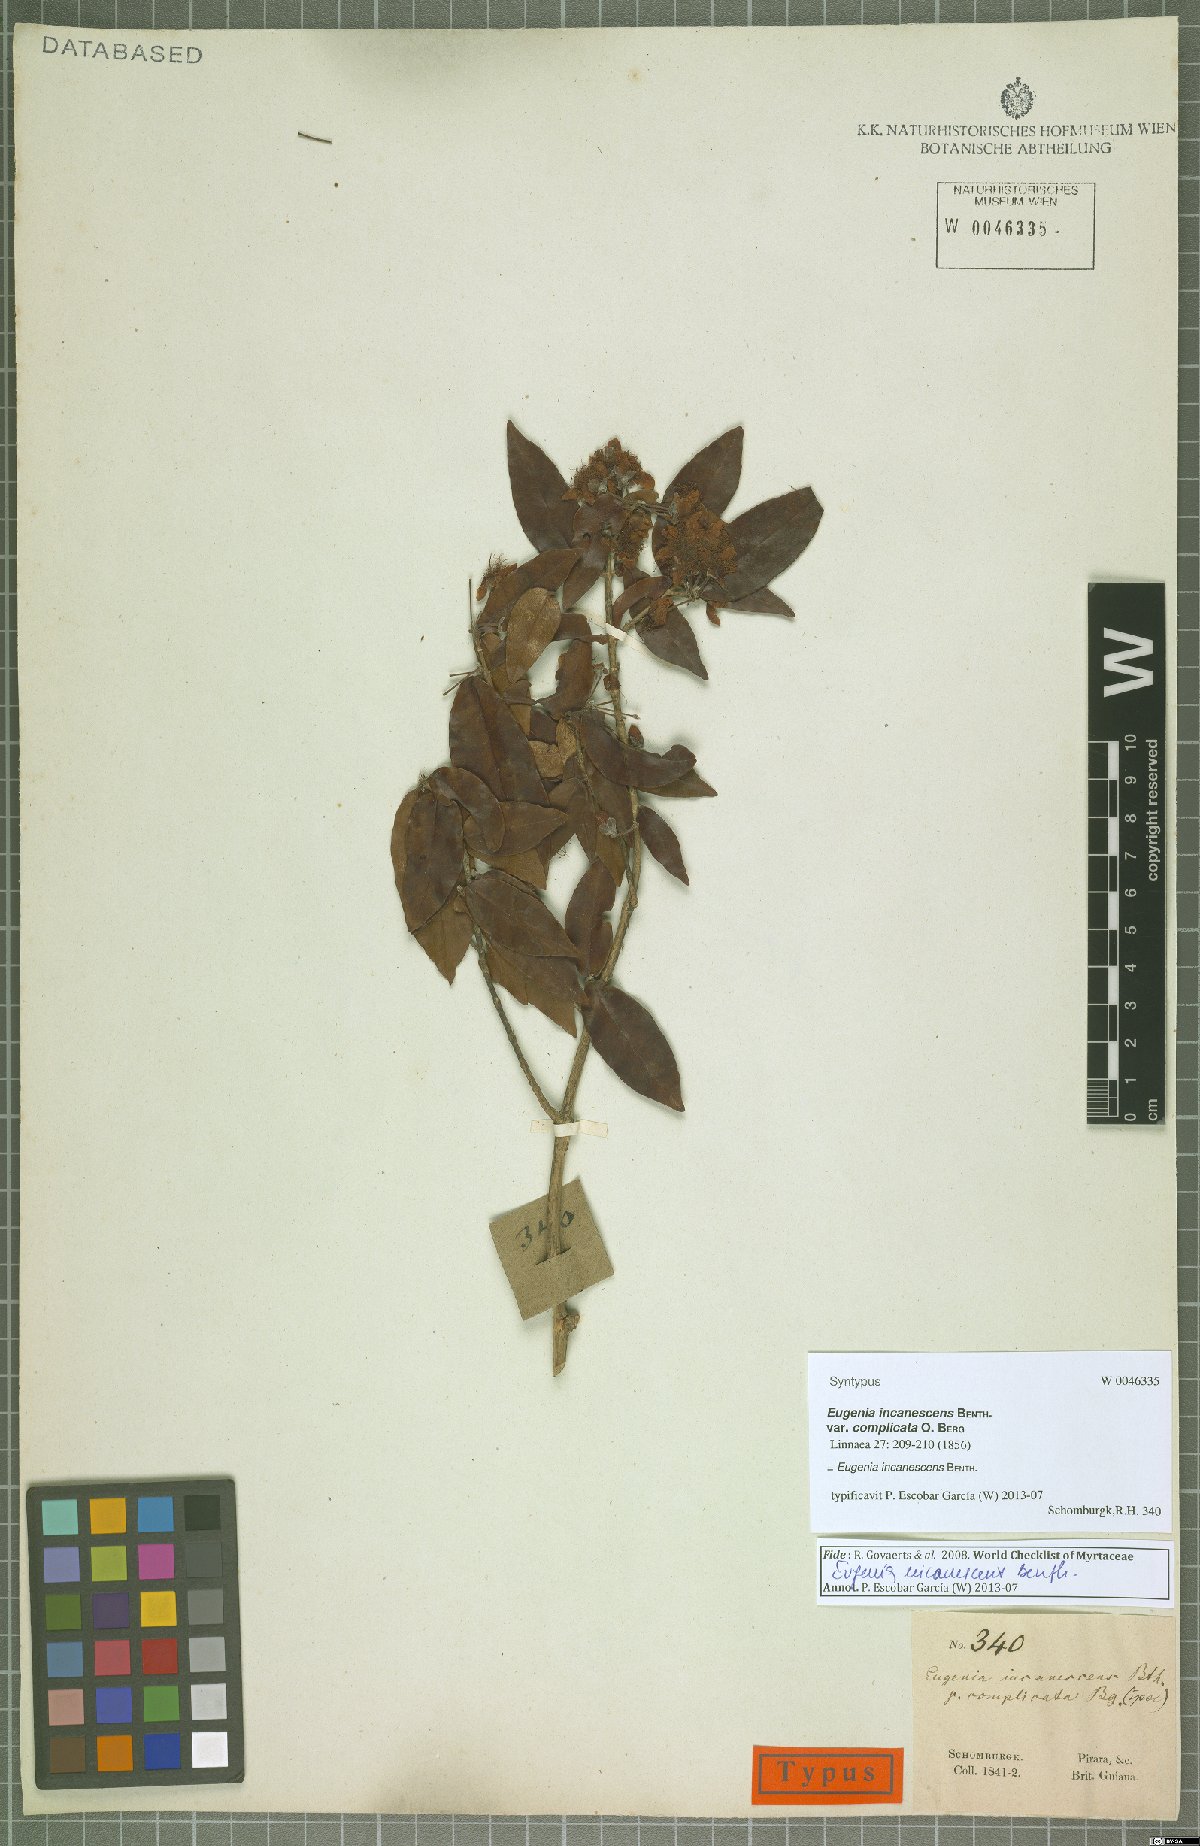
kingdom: Plantae
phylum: Tracheophyta
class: Magnoliopsida
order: Myrtales
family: Myrtaceae
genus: Eugenia
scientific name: Eugenia incanescens
